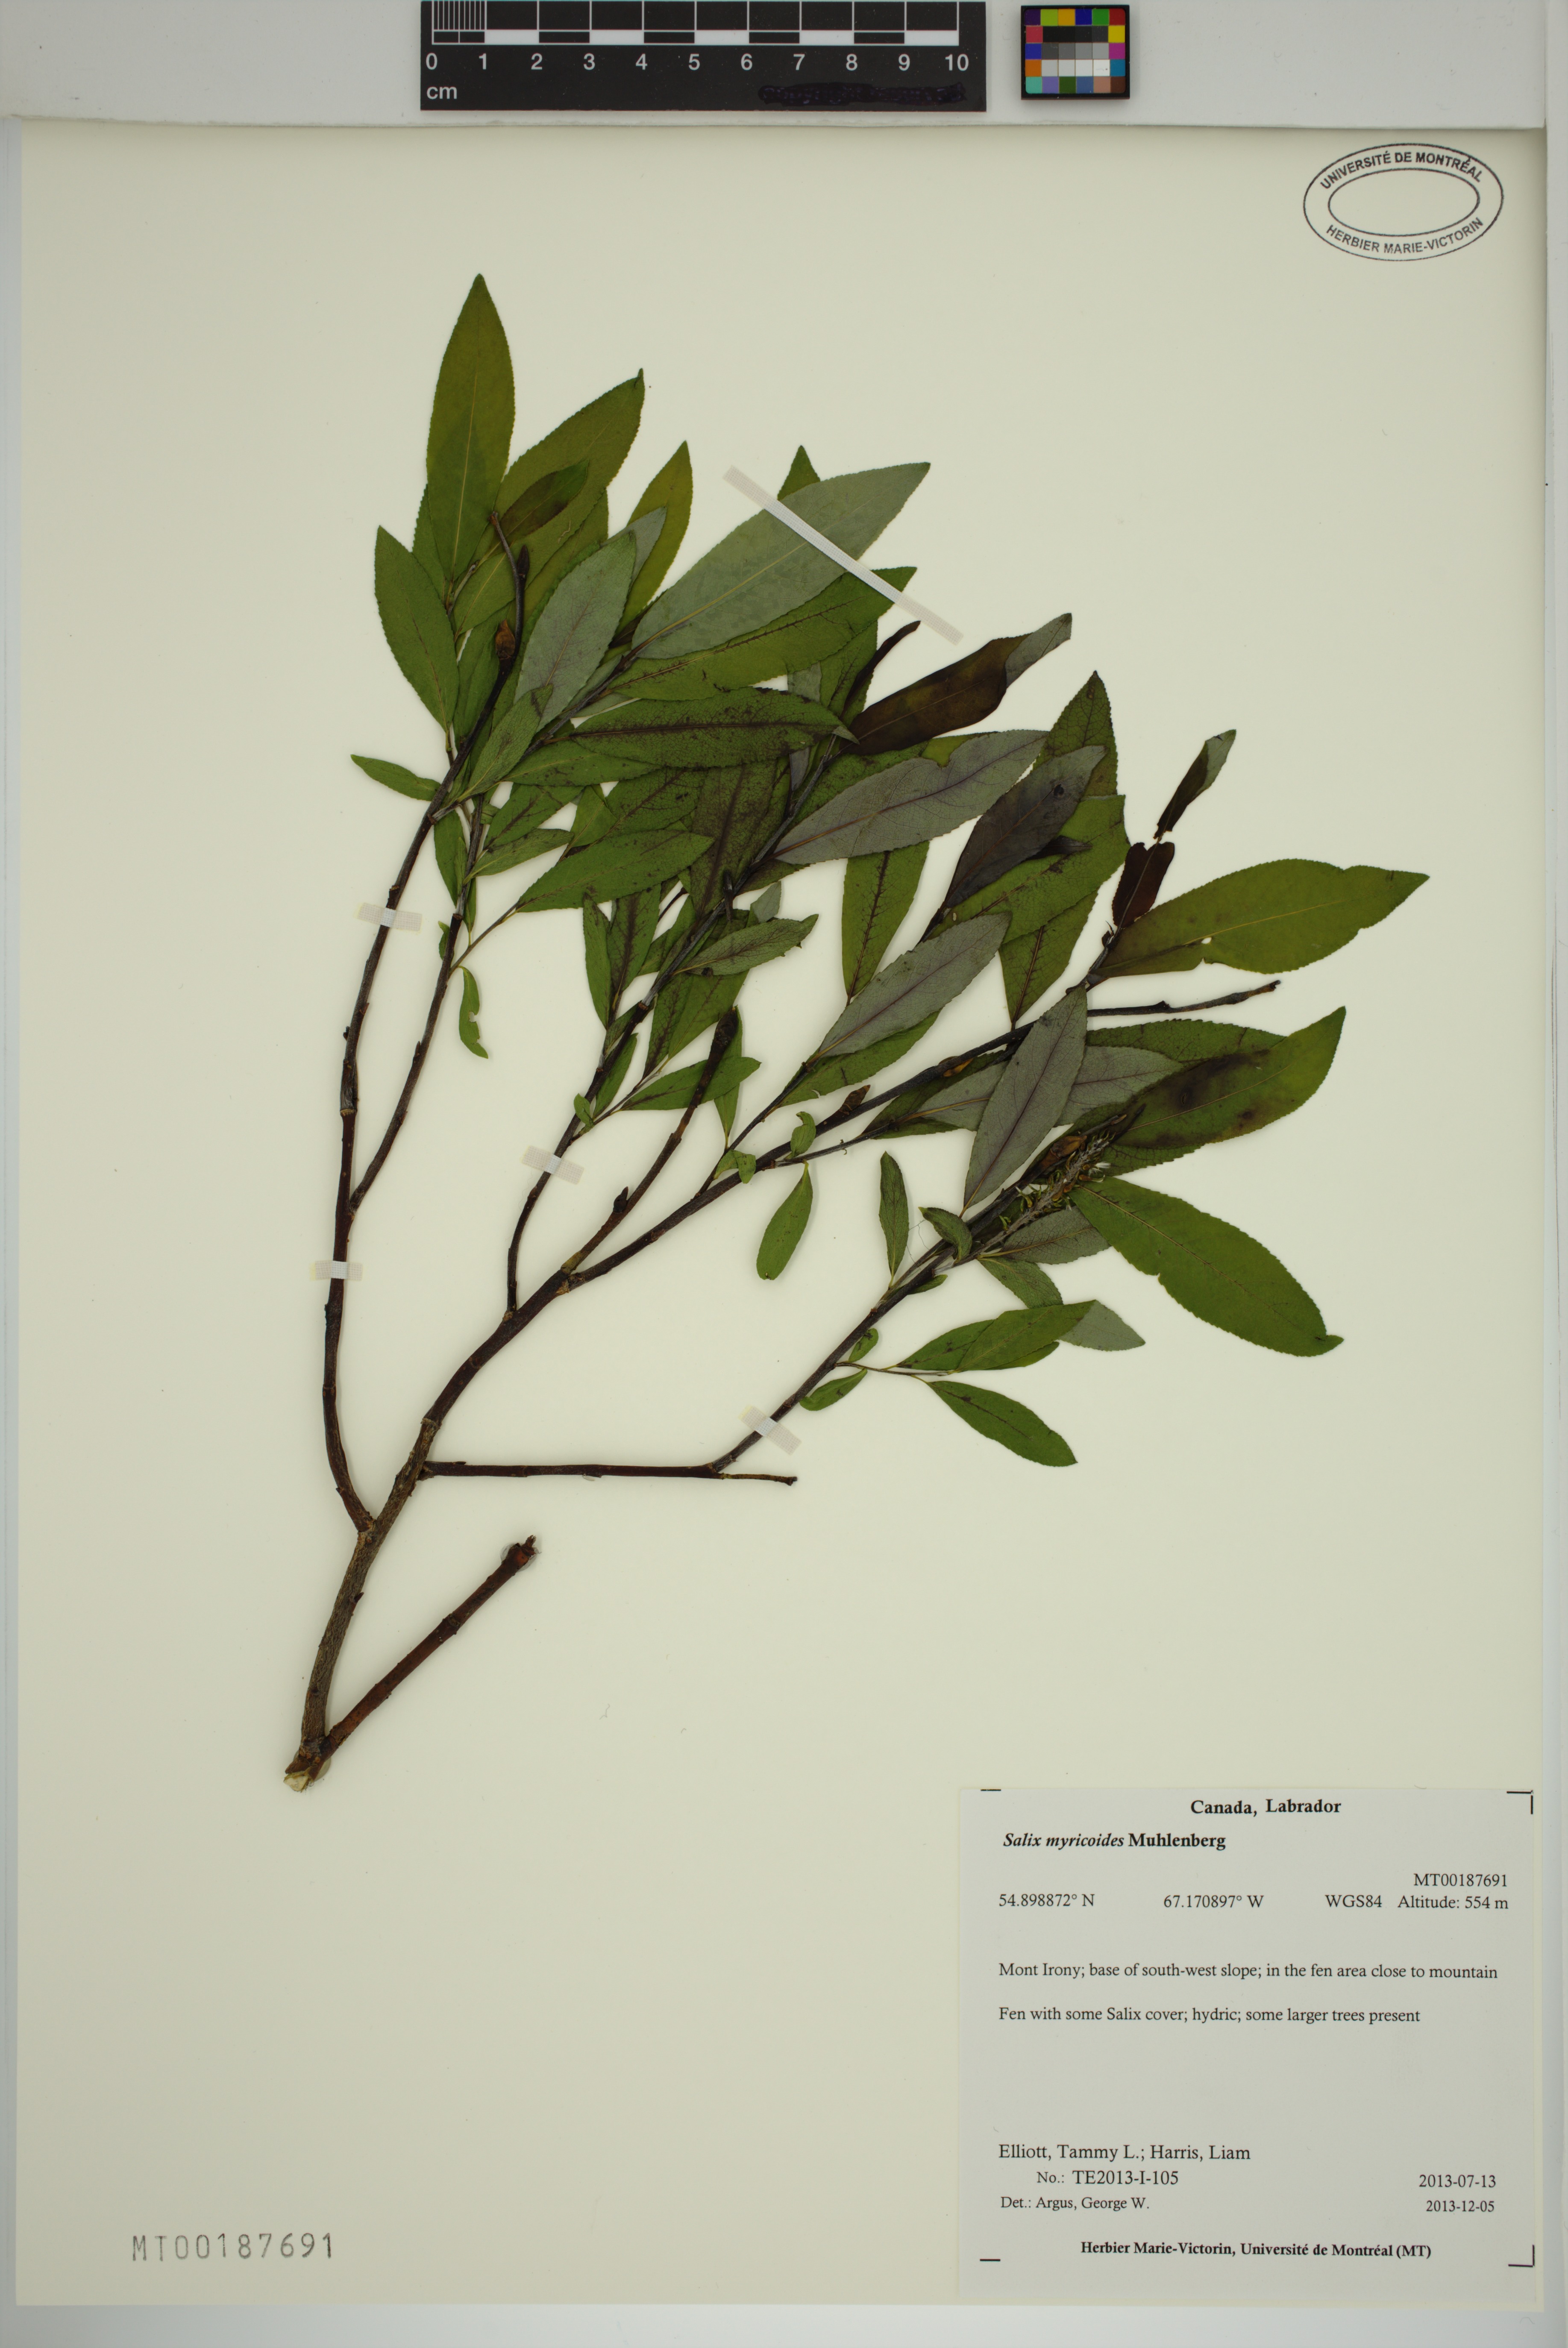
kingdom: Plantae
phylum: Tracheophyta
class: Magnoliopsida
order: Malpighiales
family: Salicaceae
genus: Salix
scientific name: Salix myricoides
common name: Bayberry willow
